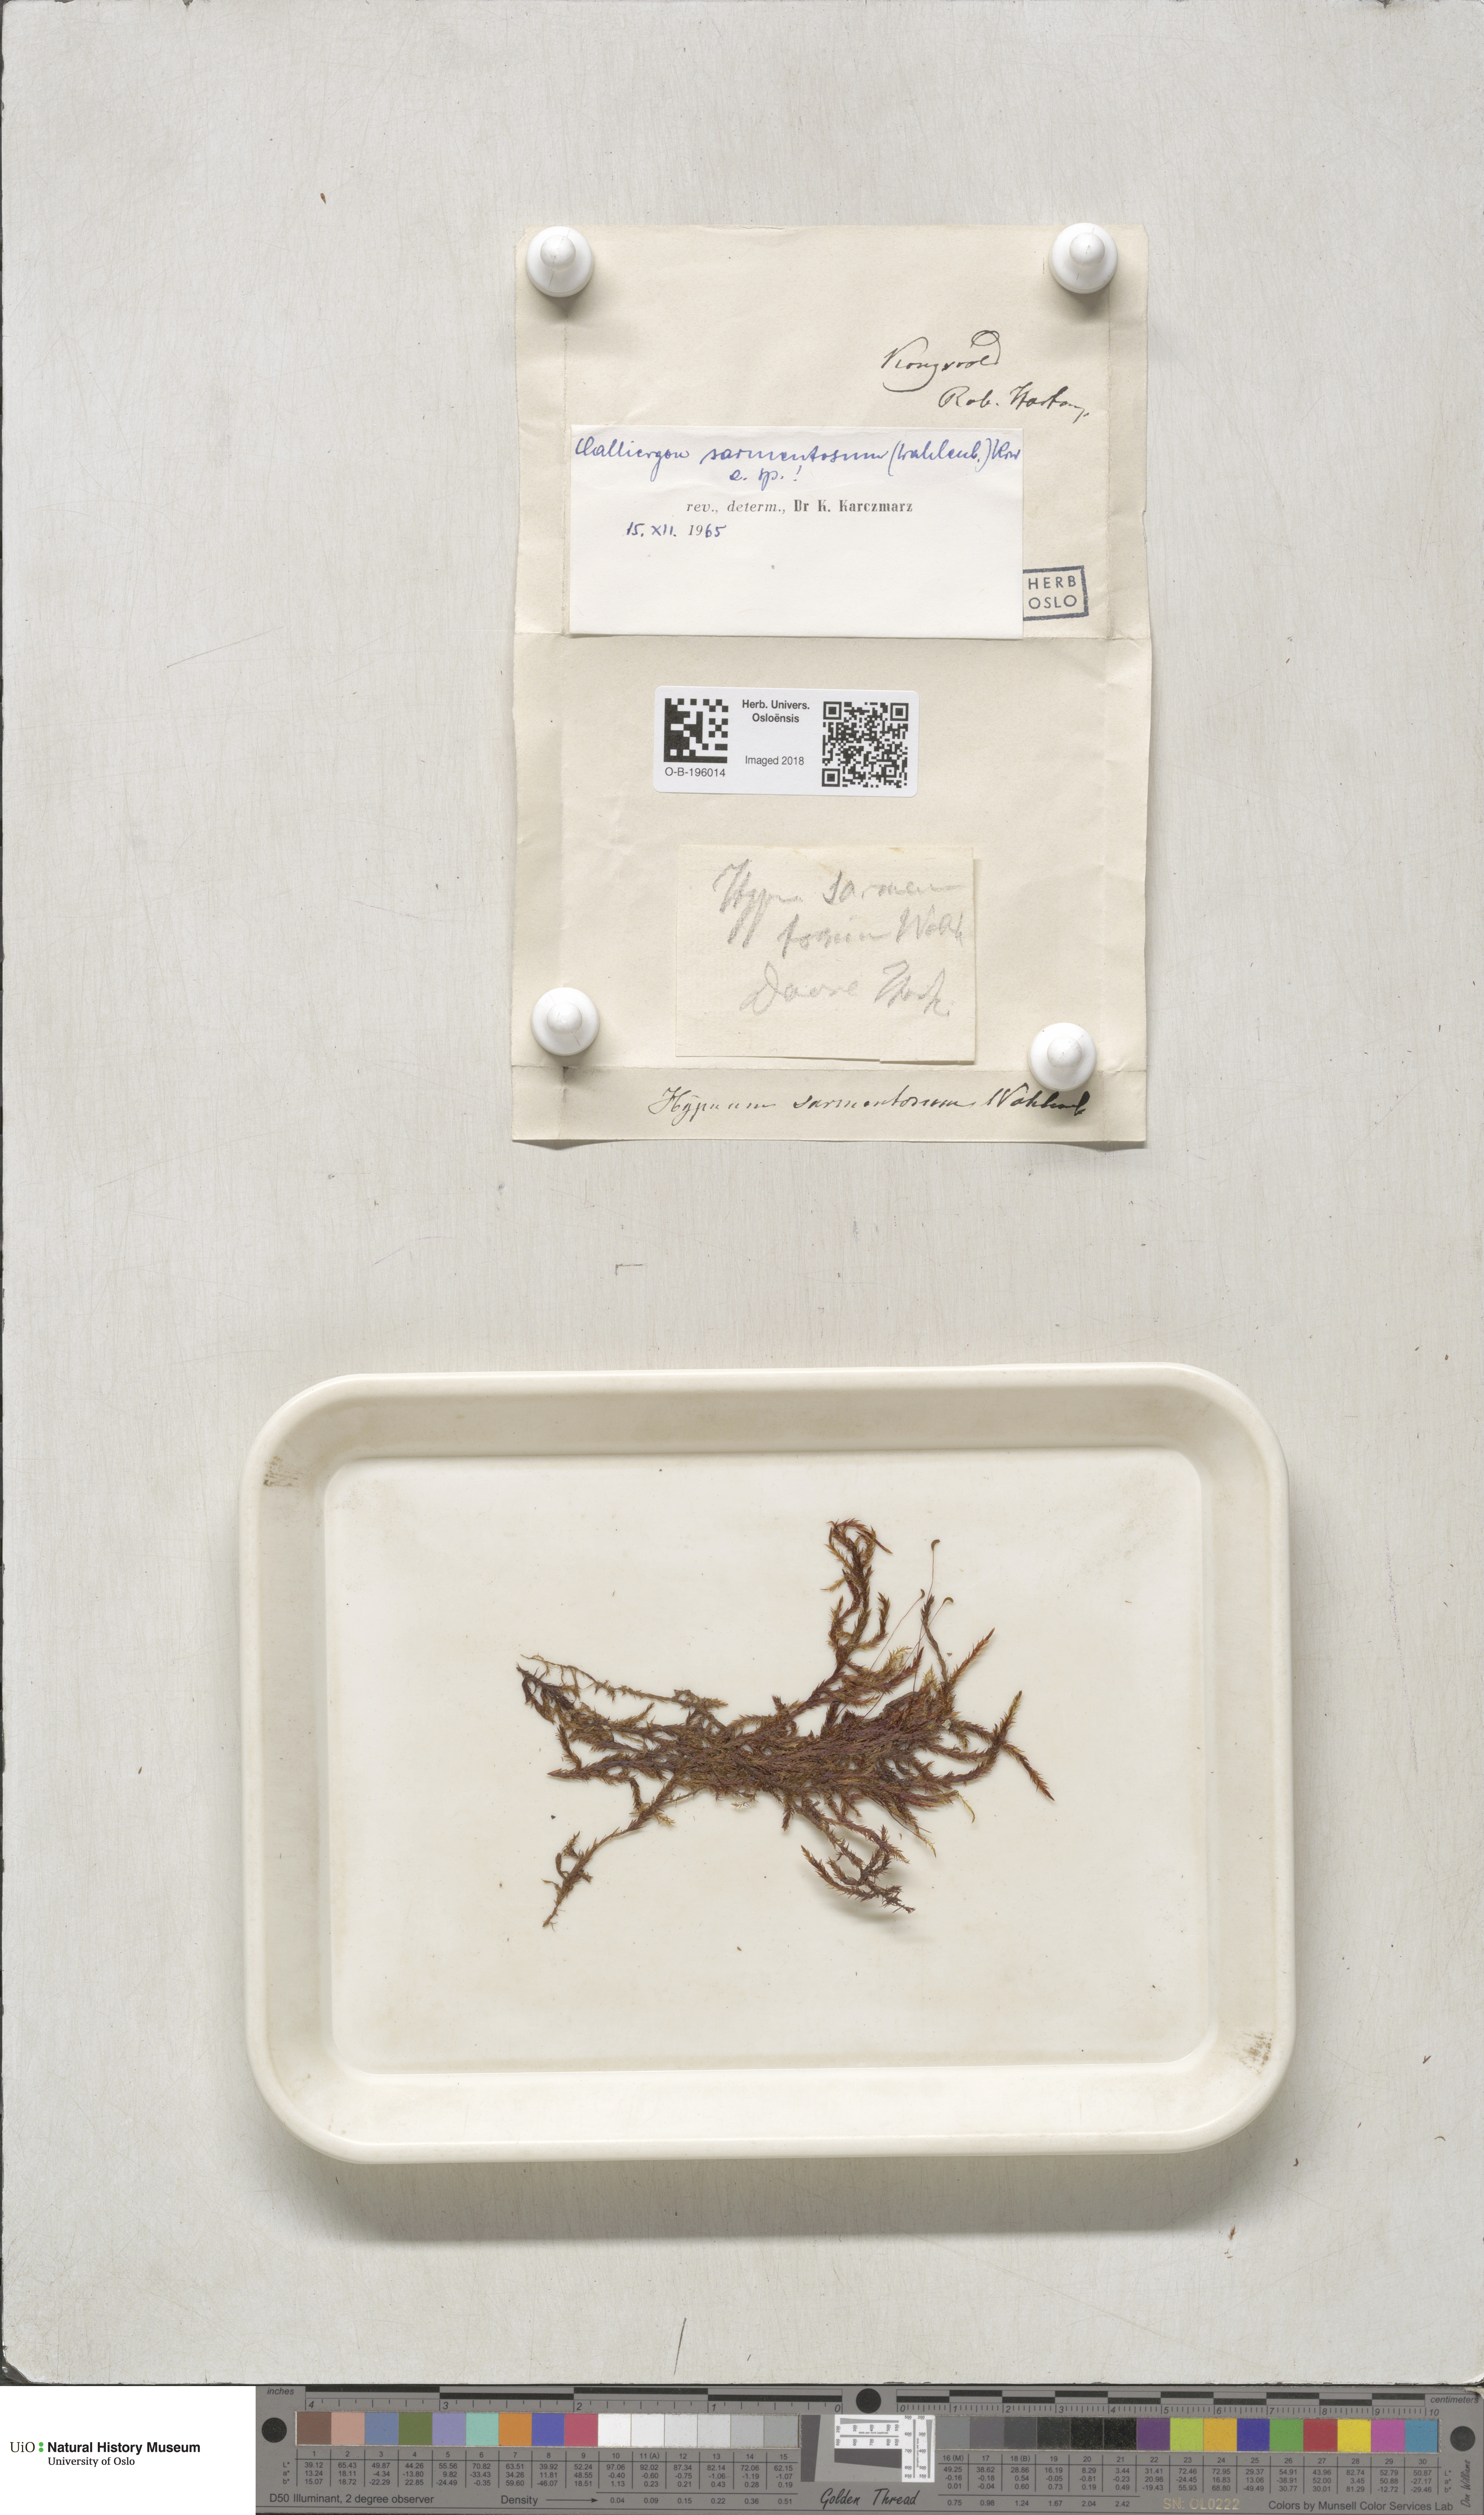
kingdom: Plantae
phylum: Bryophyta
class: Bryopsida
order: Hypnales
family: Calliergonaceae
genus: Sarmentypnum
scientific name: Sarmentypnum sarmentosum
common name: Twiggy spoon moss
